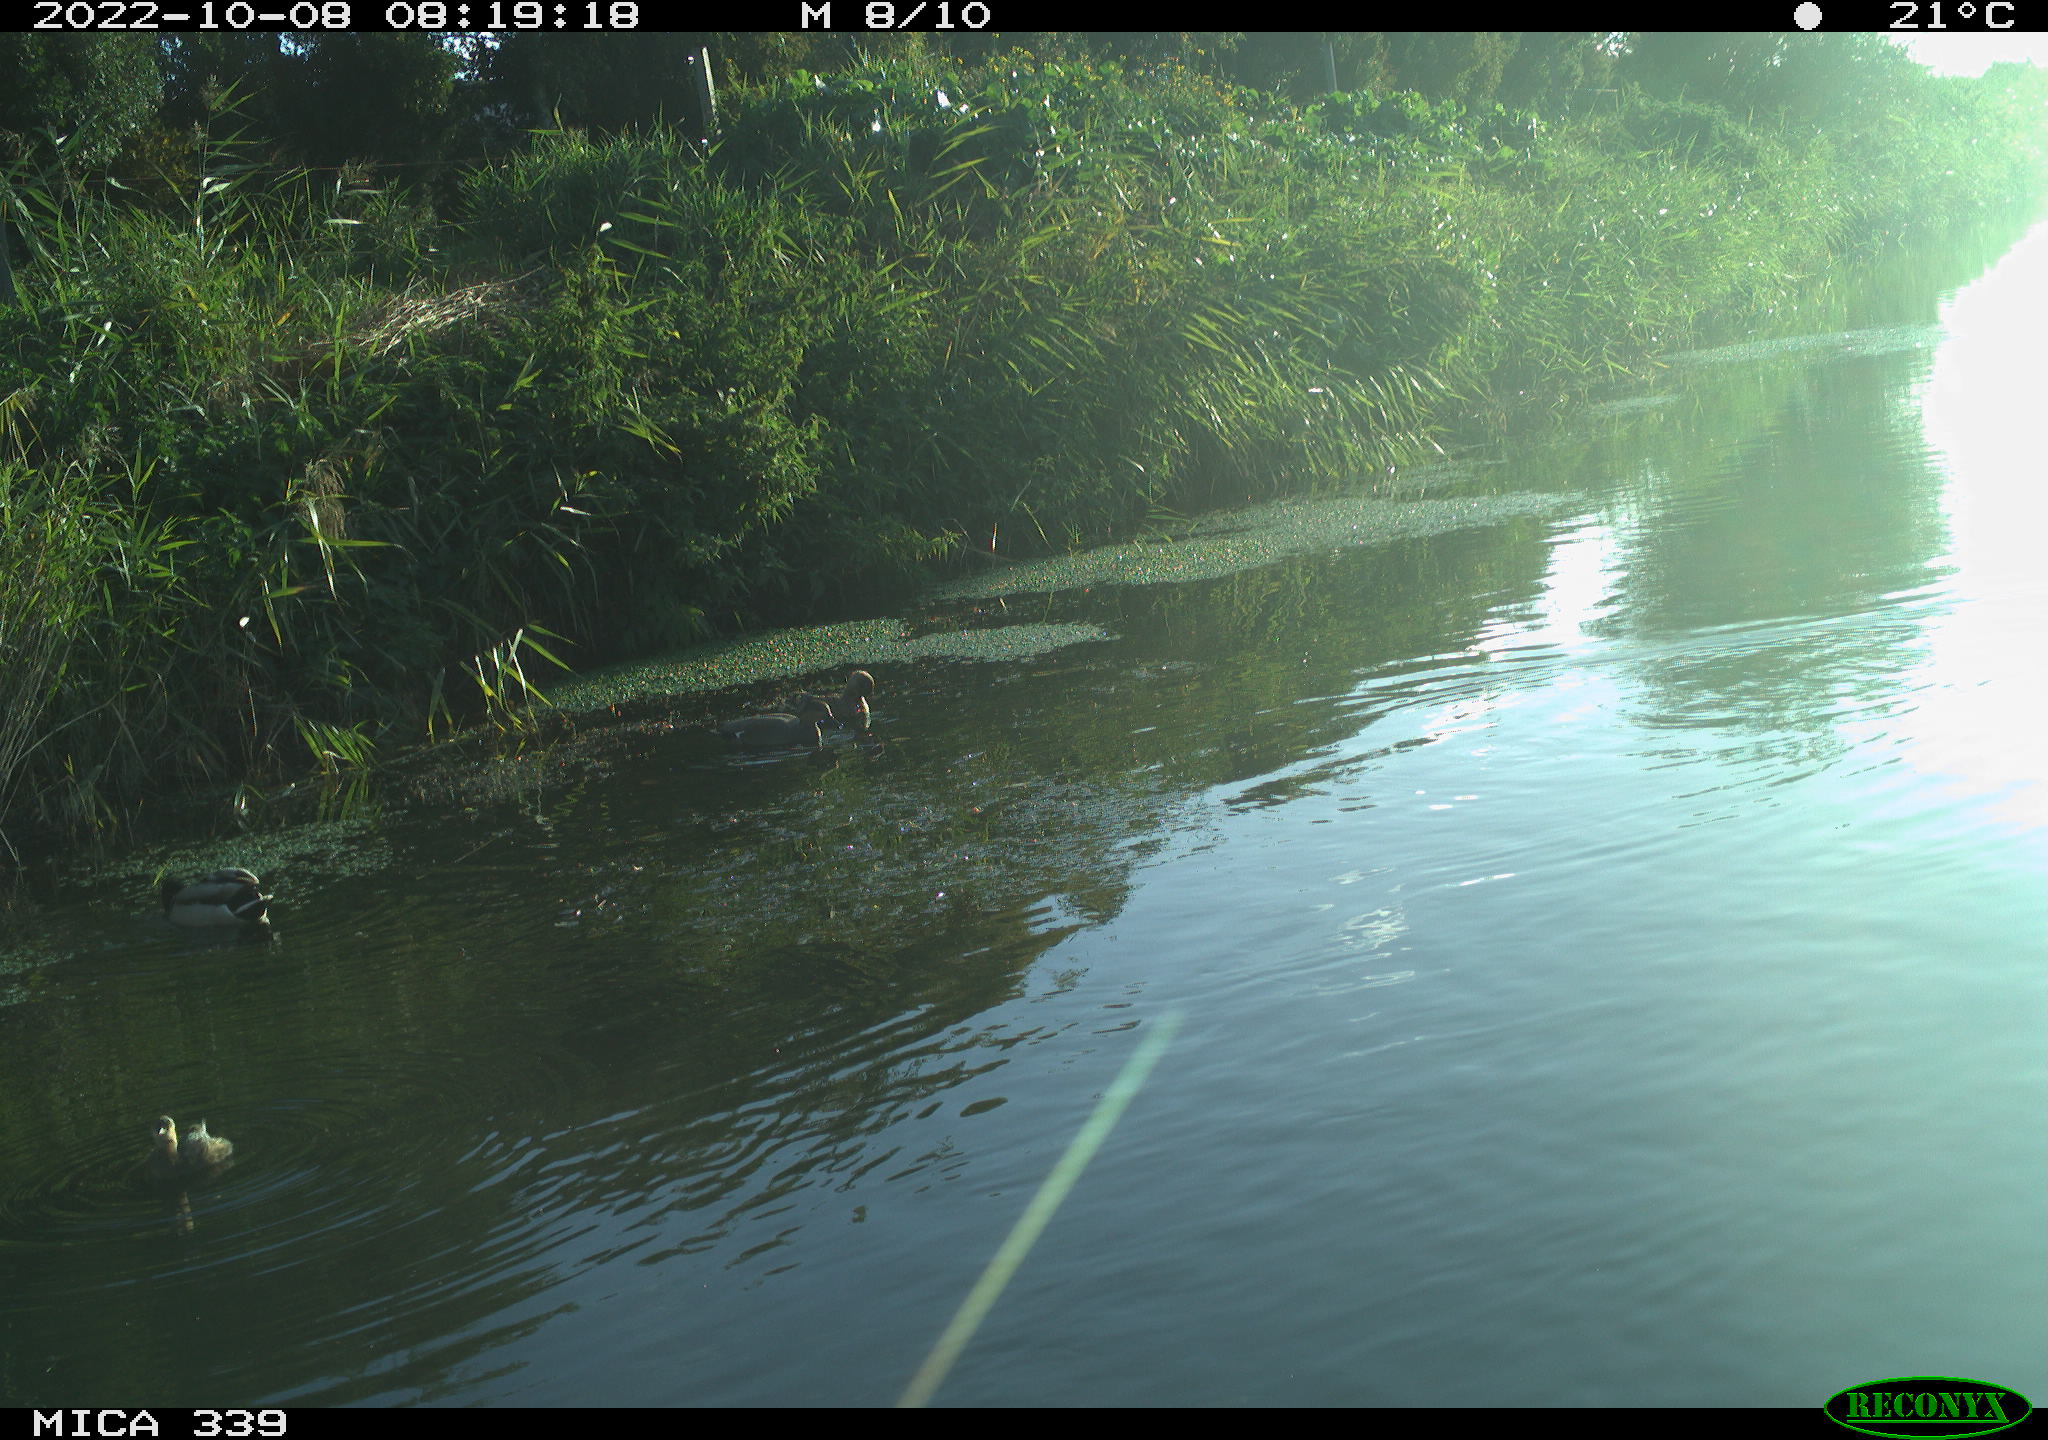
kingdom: Animalia
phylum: Chordata
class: Aves
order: Podicipediformes
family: Podicipedidae
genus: Tachybaptus
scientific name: Tachybaptus ruficollis
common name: Little grebe
